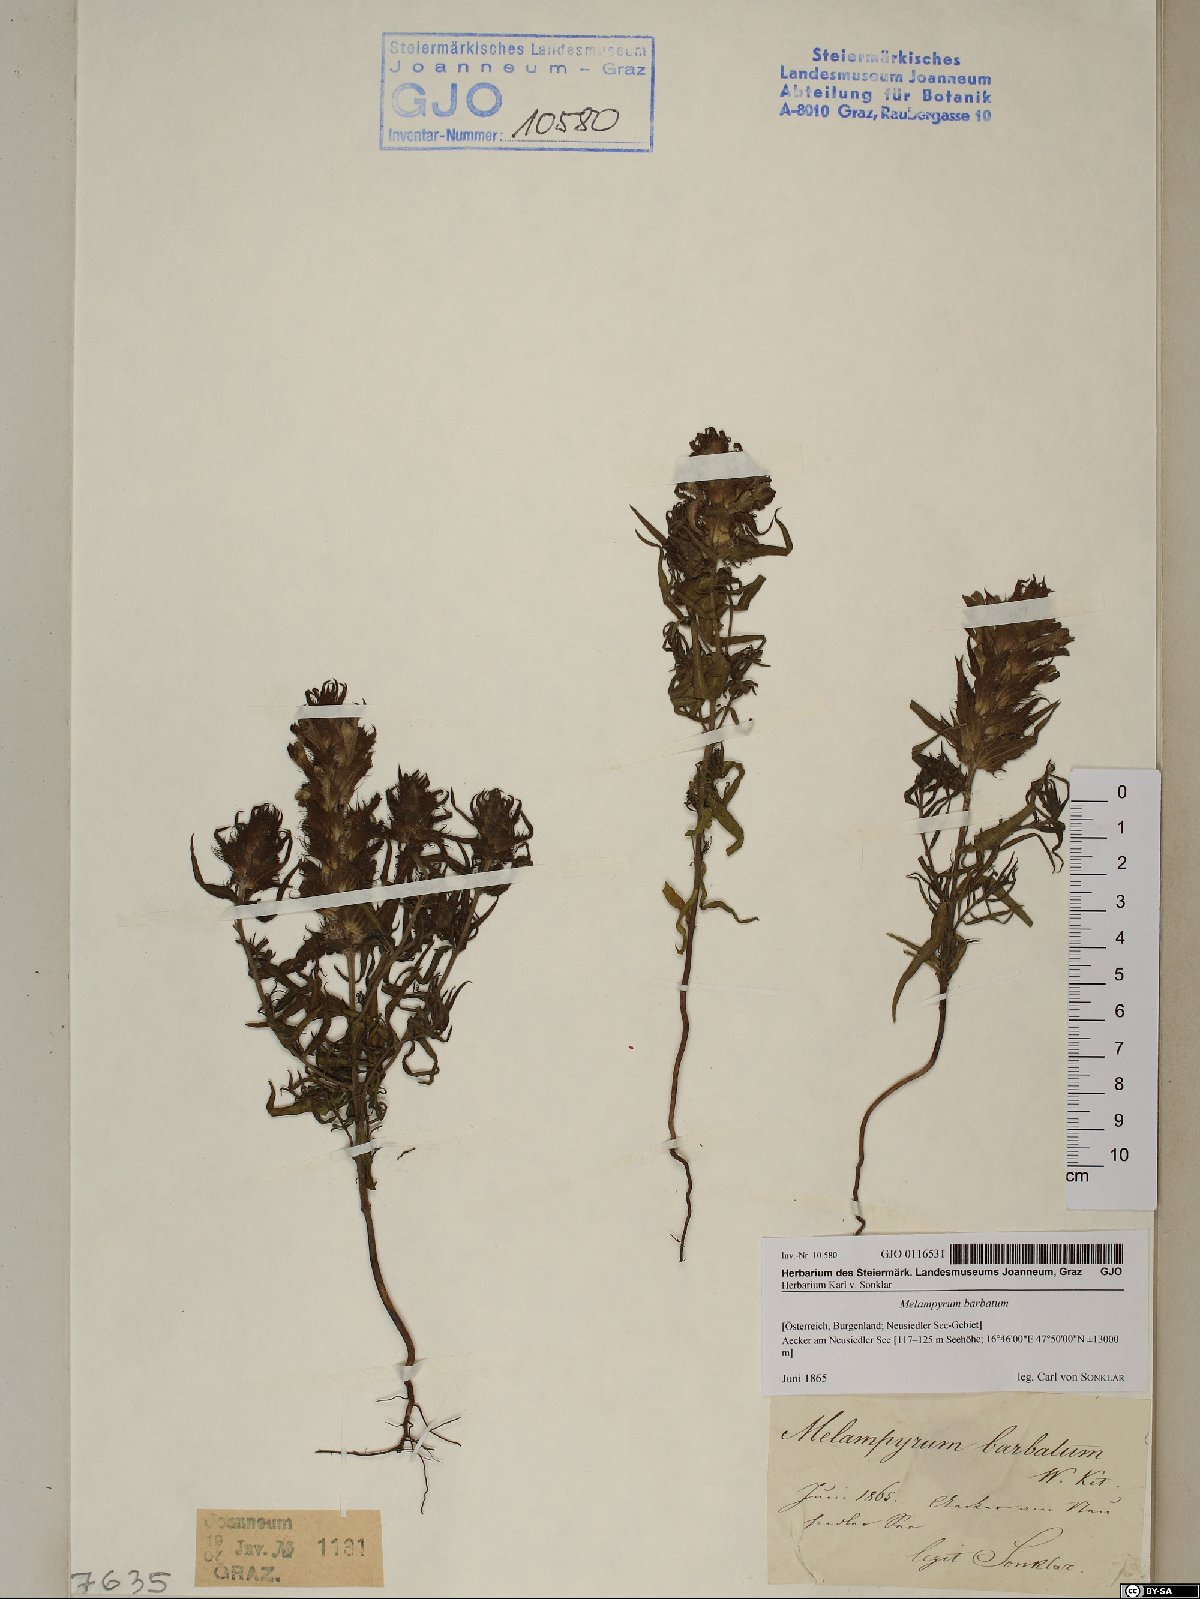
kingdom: Plantae
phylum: Tracheophyta
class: Magnoliopsida
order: Lamiales
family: Orobanchaceae
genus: Melampyrum
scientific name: Melampyrum barbatum
